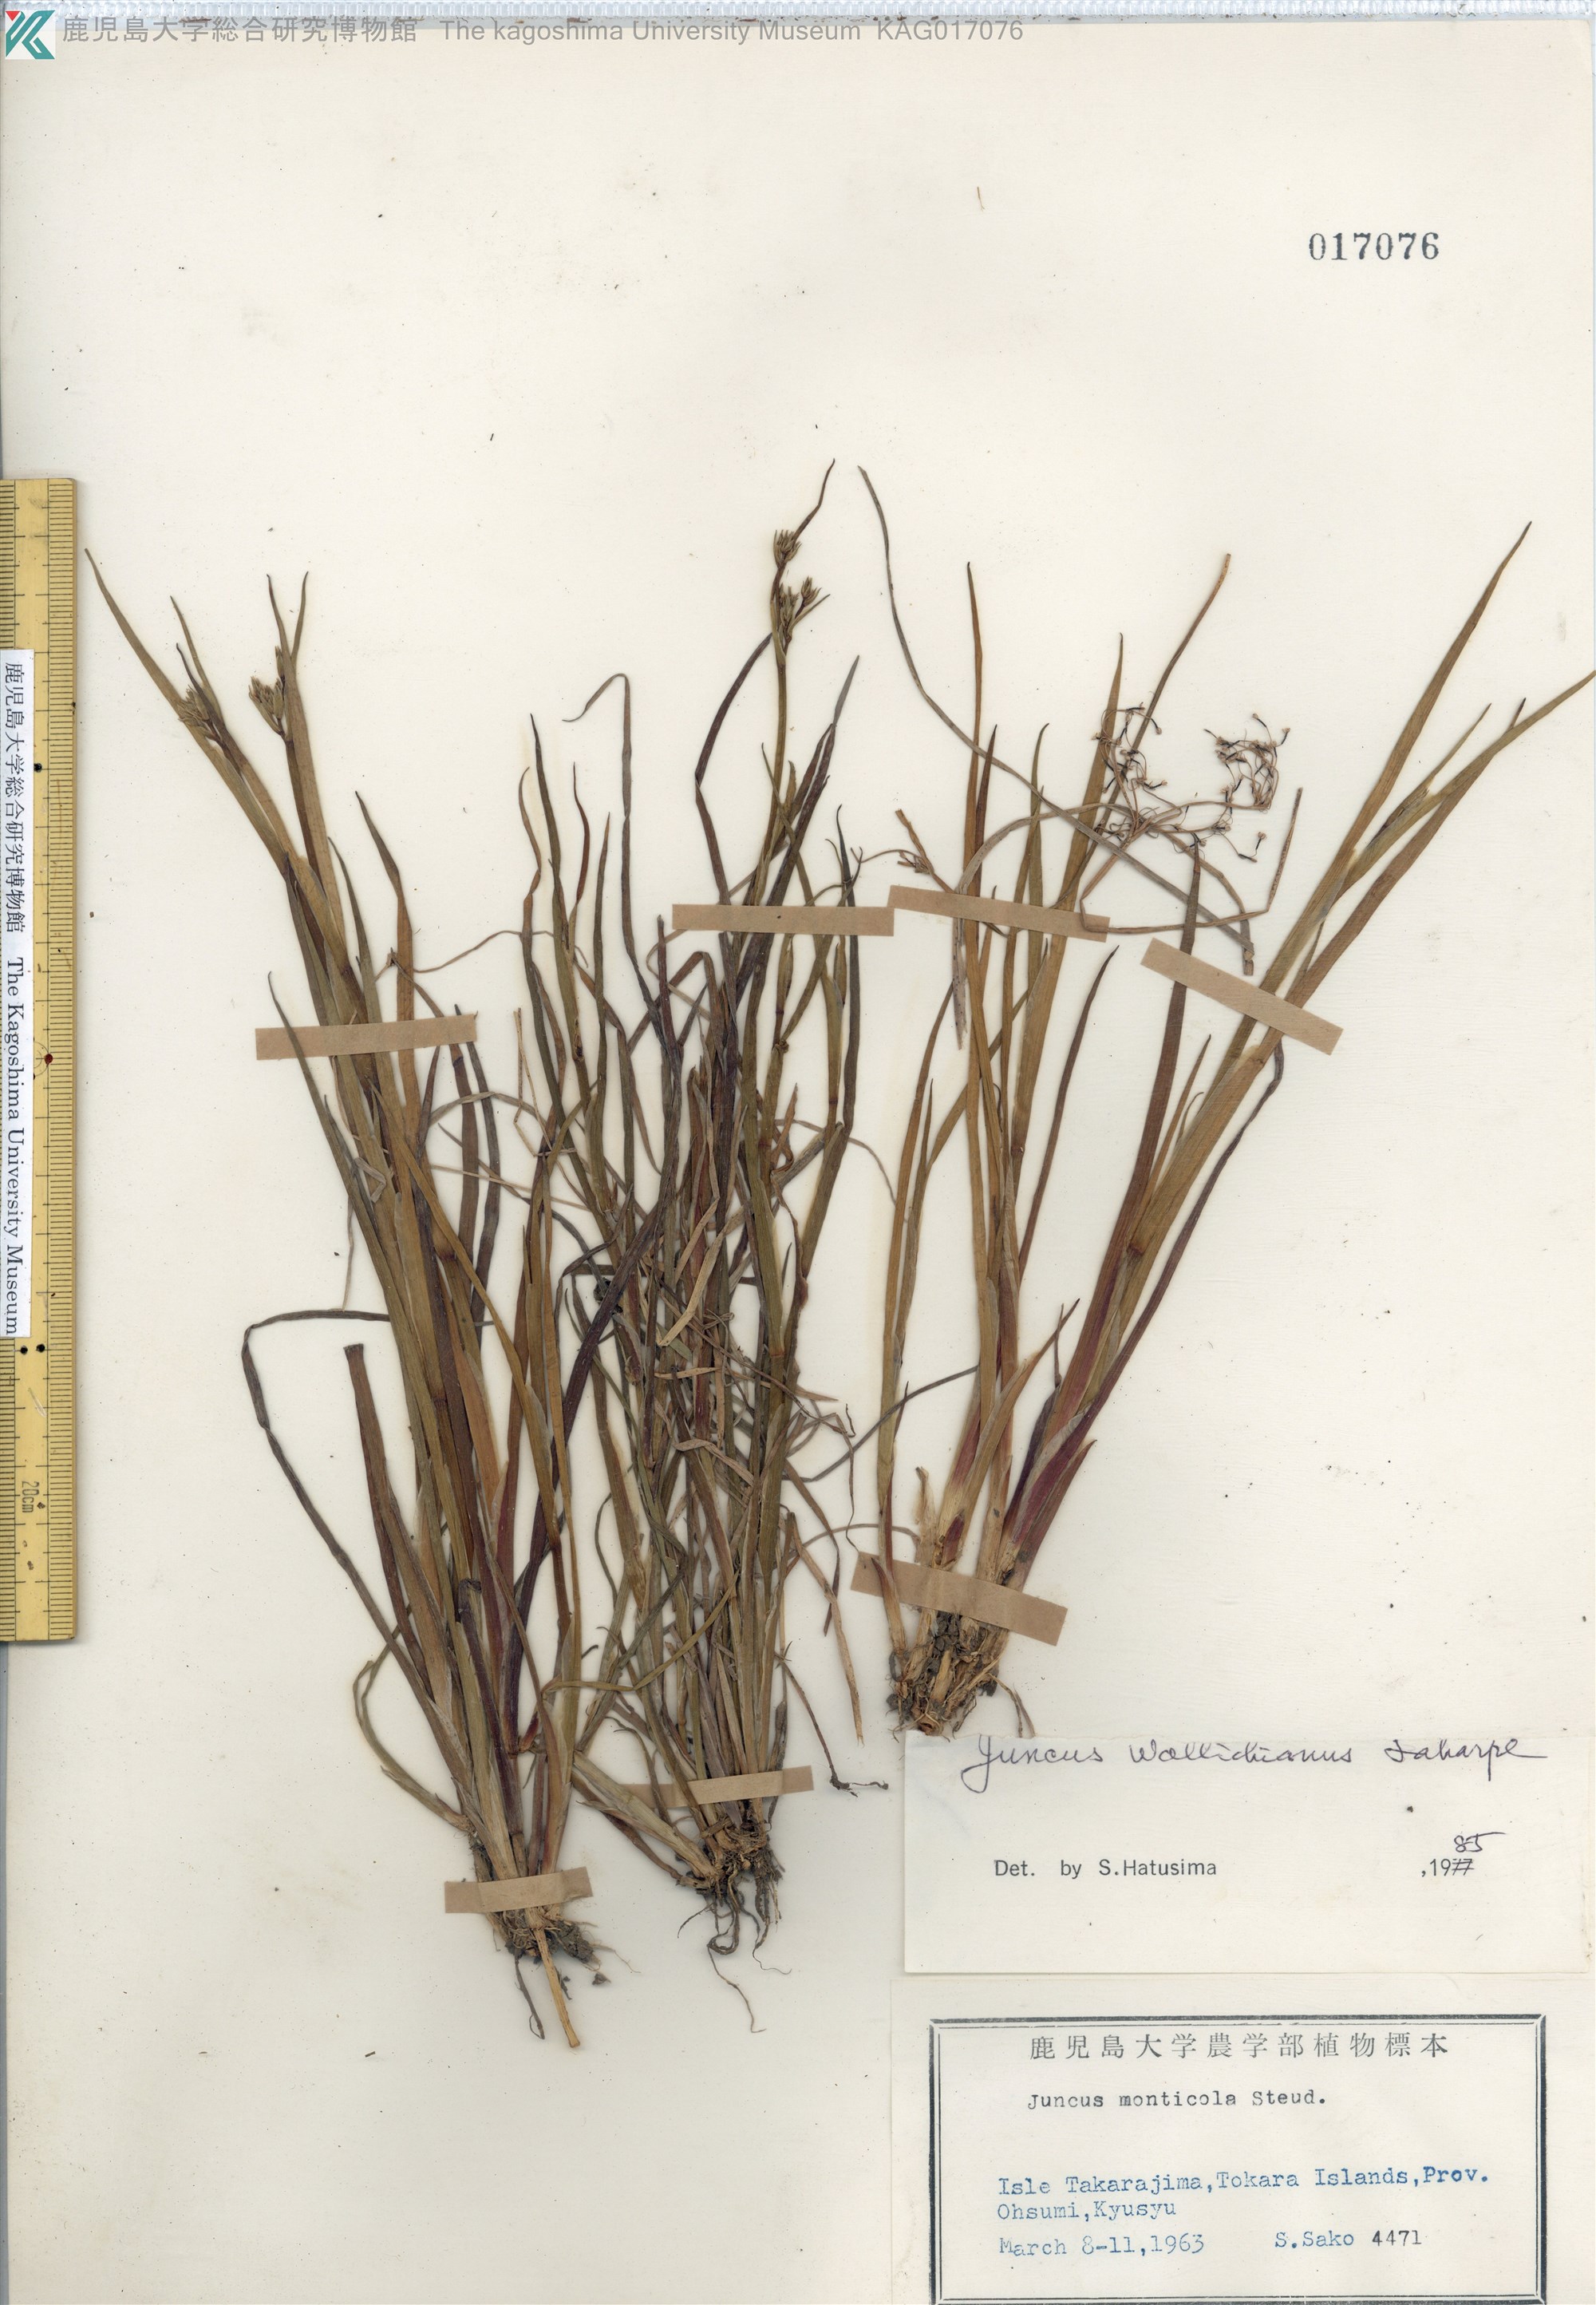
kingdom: Plantae
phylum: Tracheophyta
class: Liliopsida
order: Poales
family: Juncaceae
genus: Juncus
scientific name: Juncus prismatocarpus
